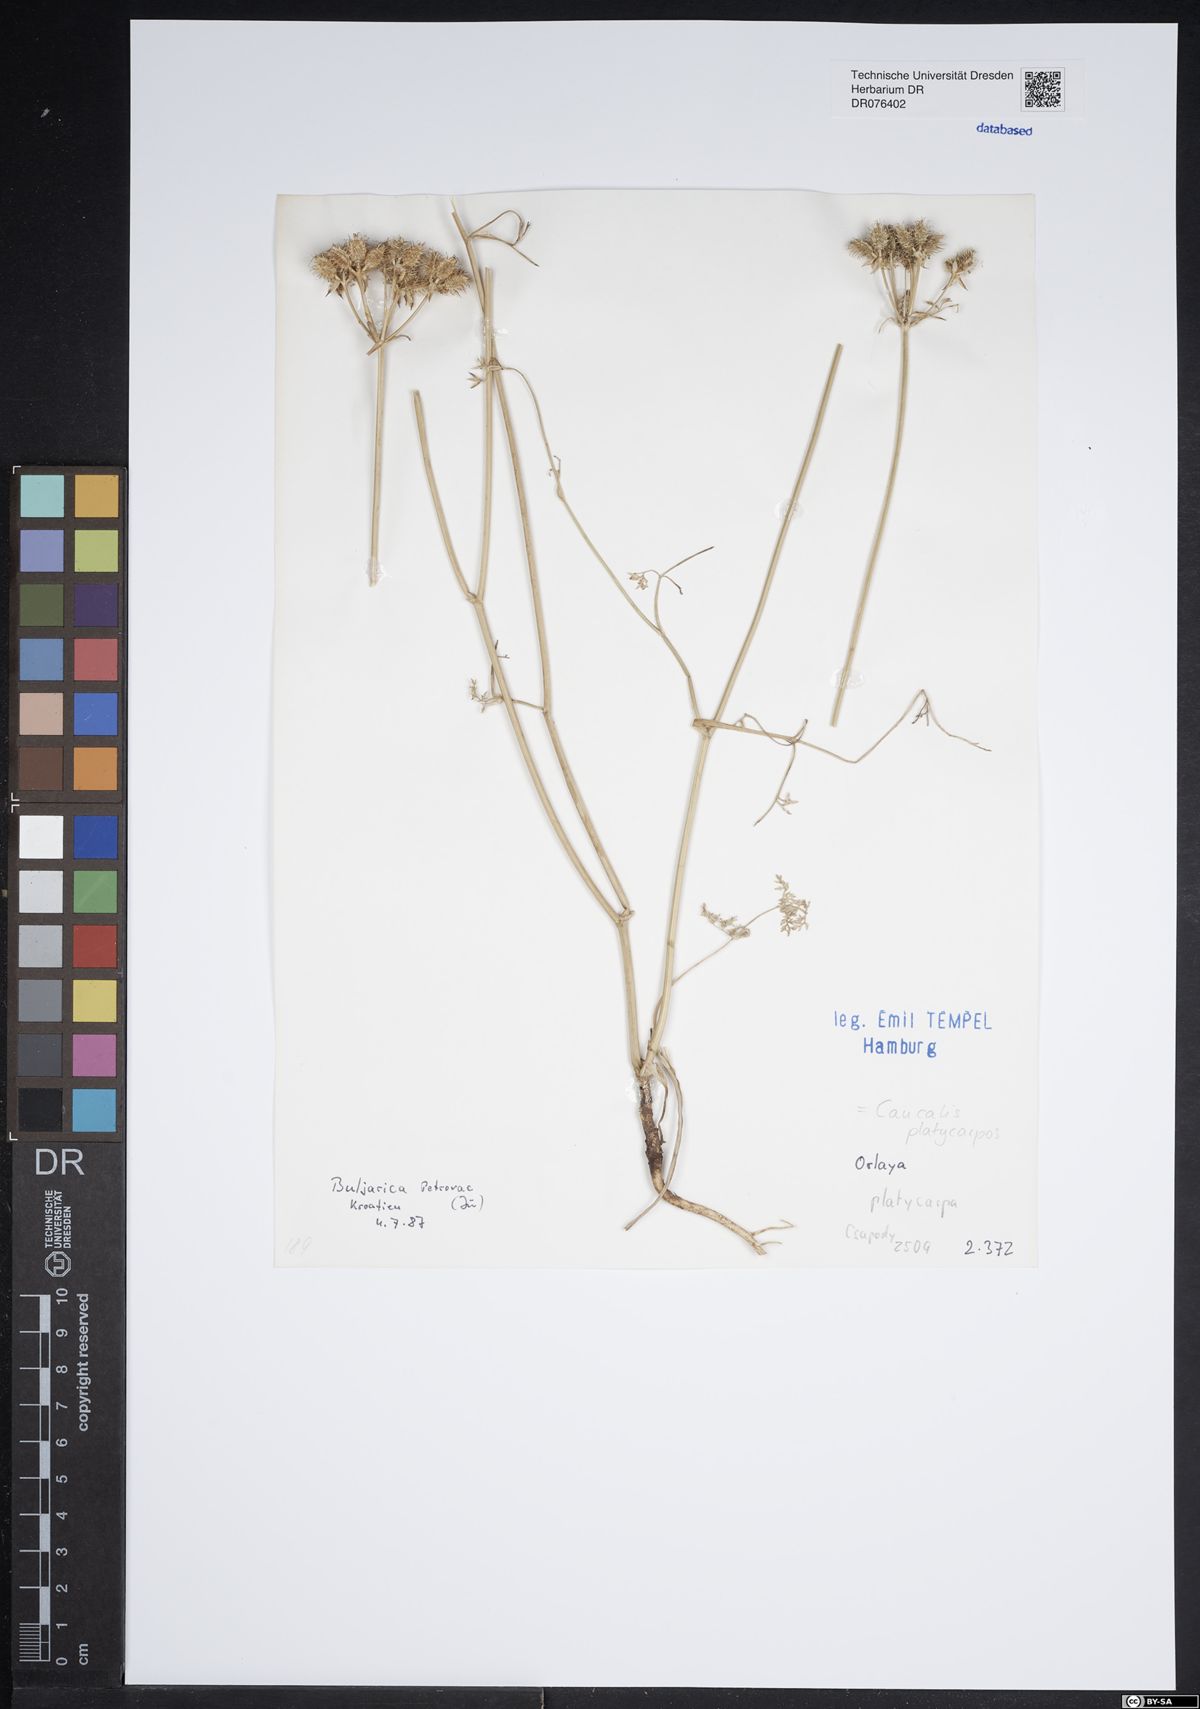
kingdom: Plantae
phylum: Tracheophyta
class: Magnoliopsida
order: Apiales
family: Apiaceae
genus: Caucalis
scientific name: Caucalis platycarpos
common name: Small bur-parsley
